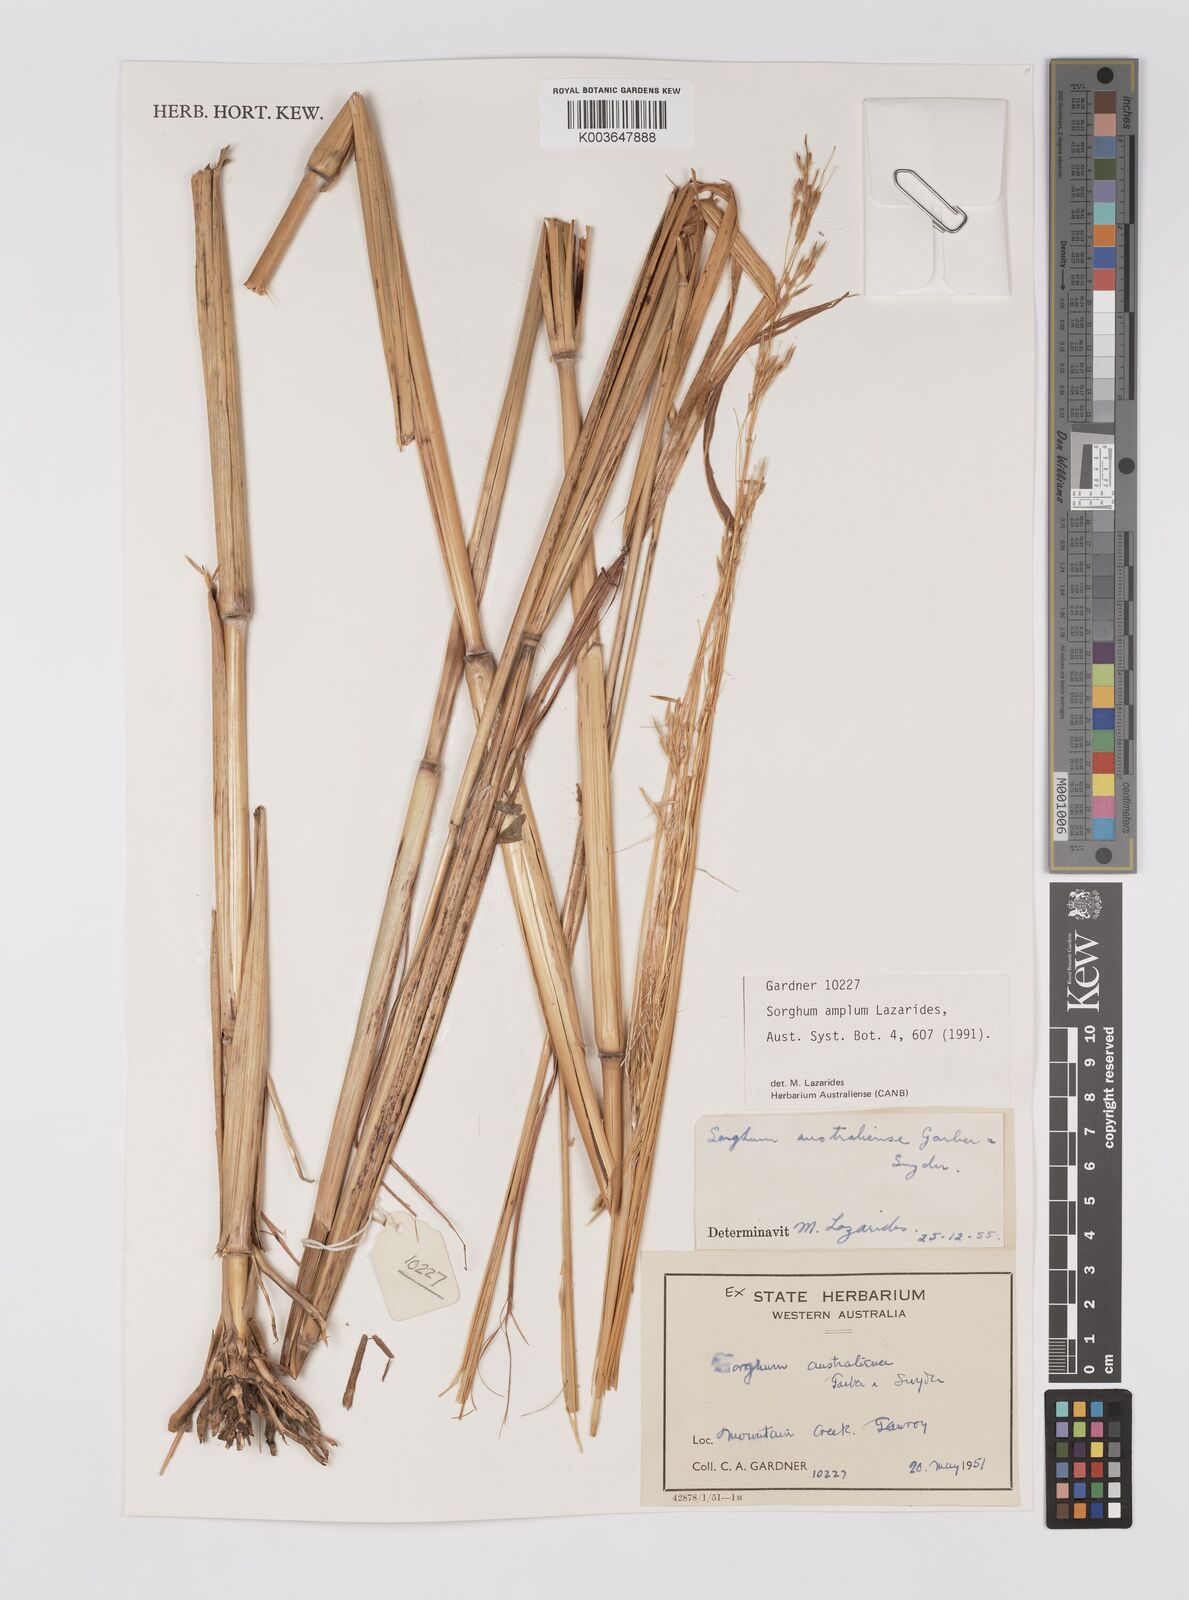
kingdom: Plantae
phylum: Tracheophyta
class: Liliopsida
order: Poales
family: Poaceae
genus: Sarga
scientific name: Sarga timorensis
